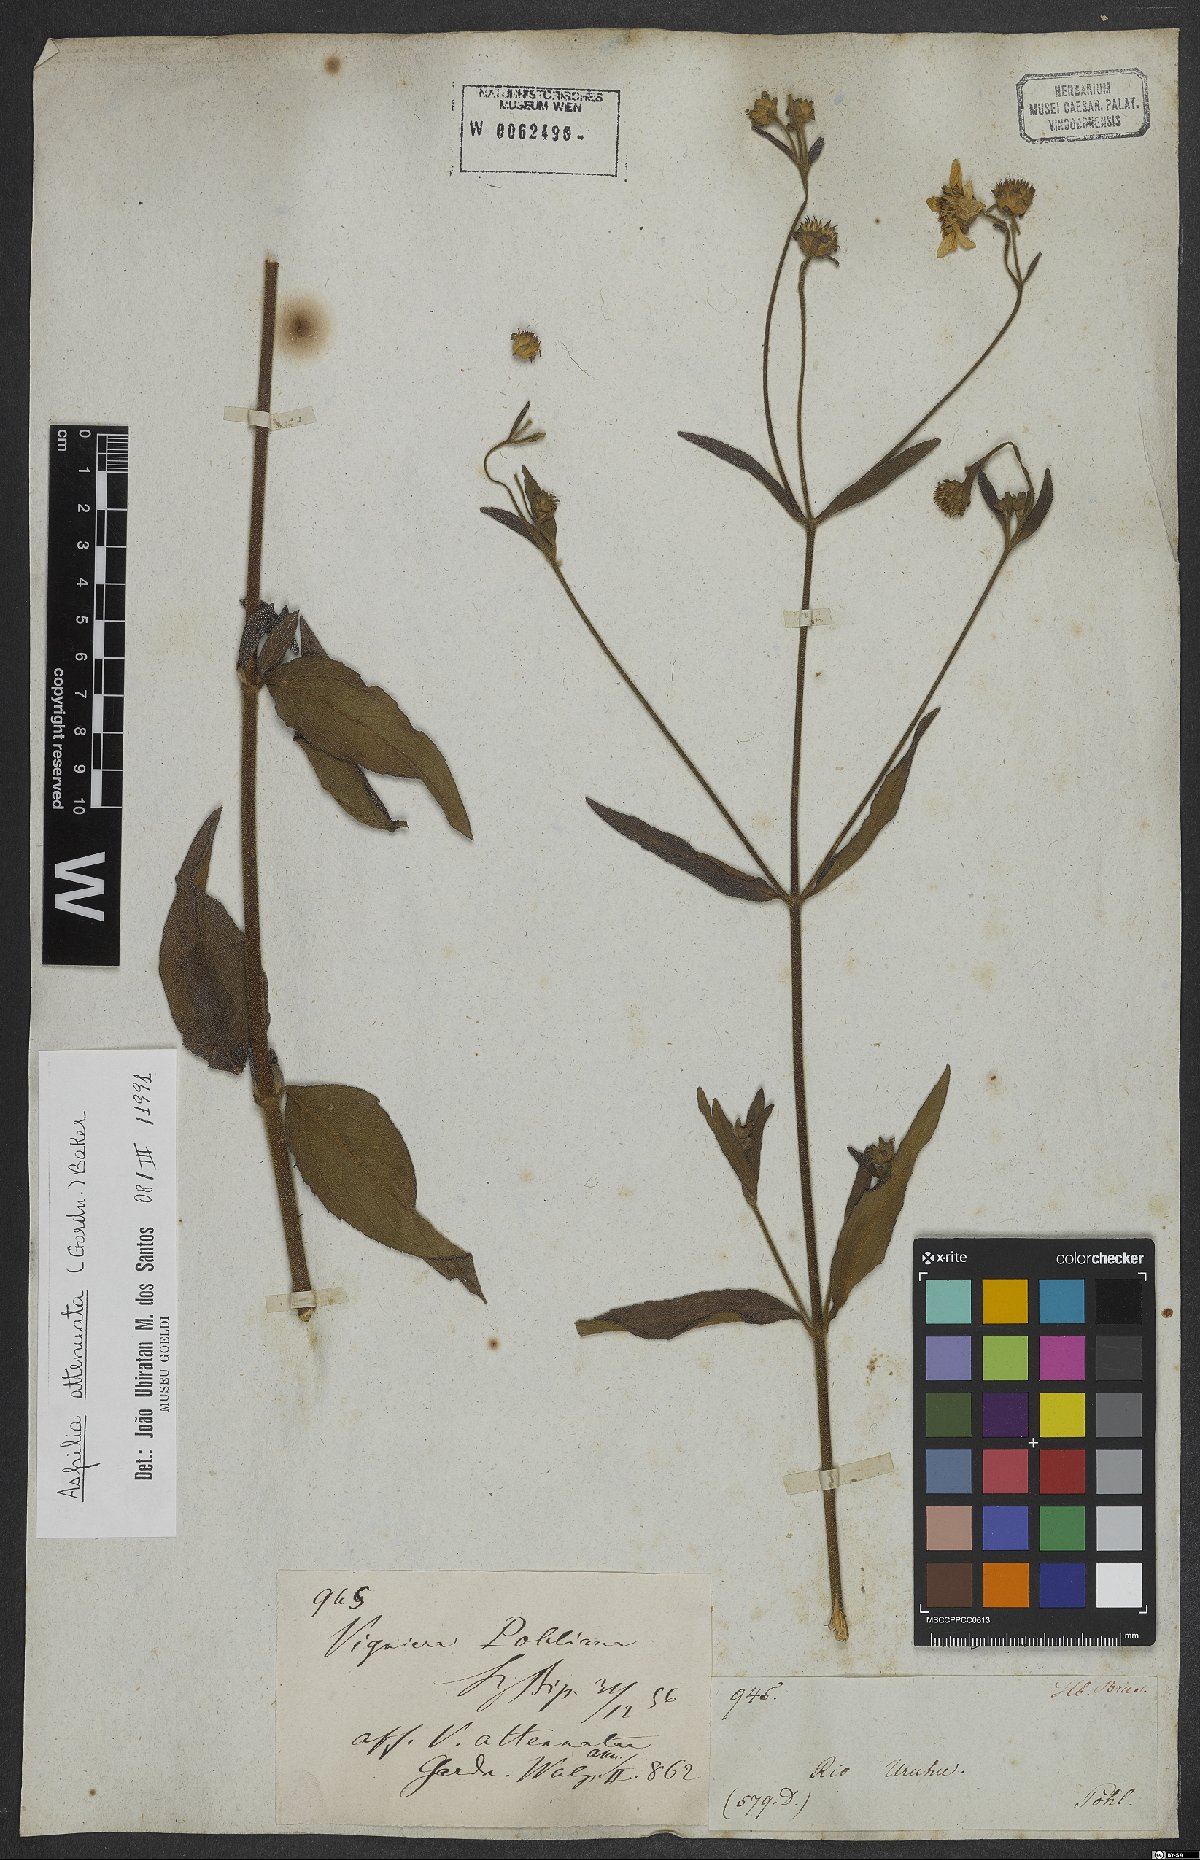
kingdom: Plantae
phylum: Tracheophyta
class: Magnoliopsida
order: Asterales
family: Asteraceae
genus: Wedelia
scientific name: Wedelia attenuata
